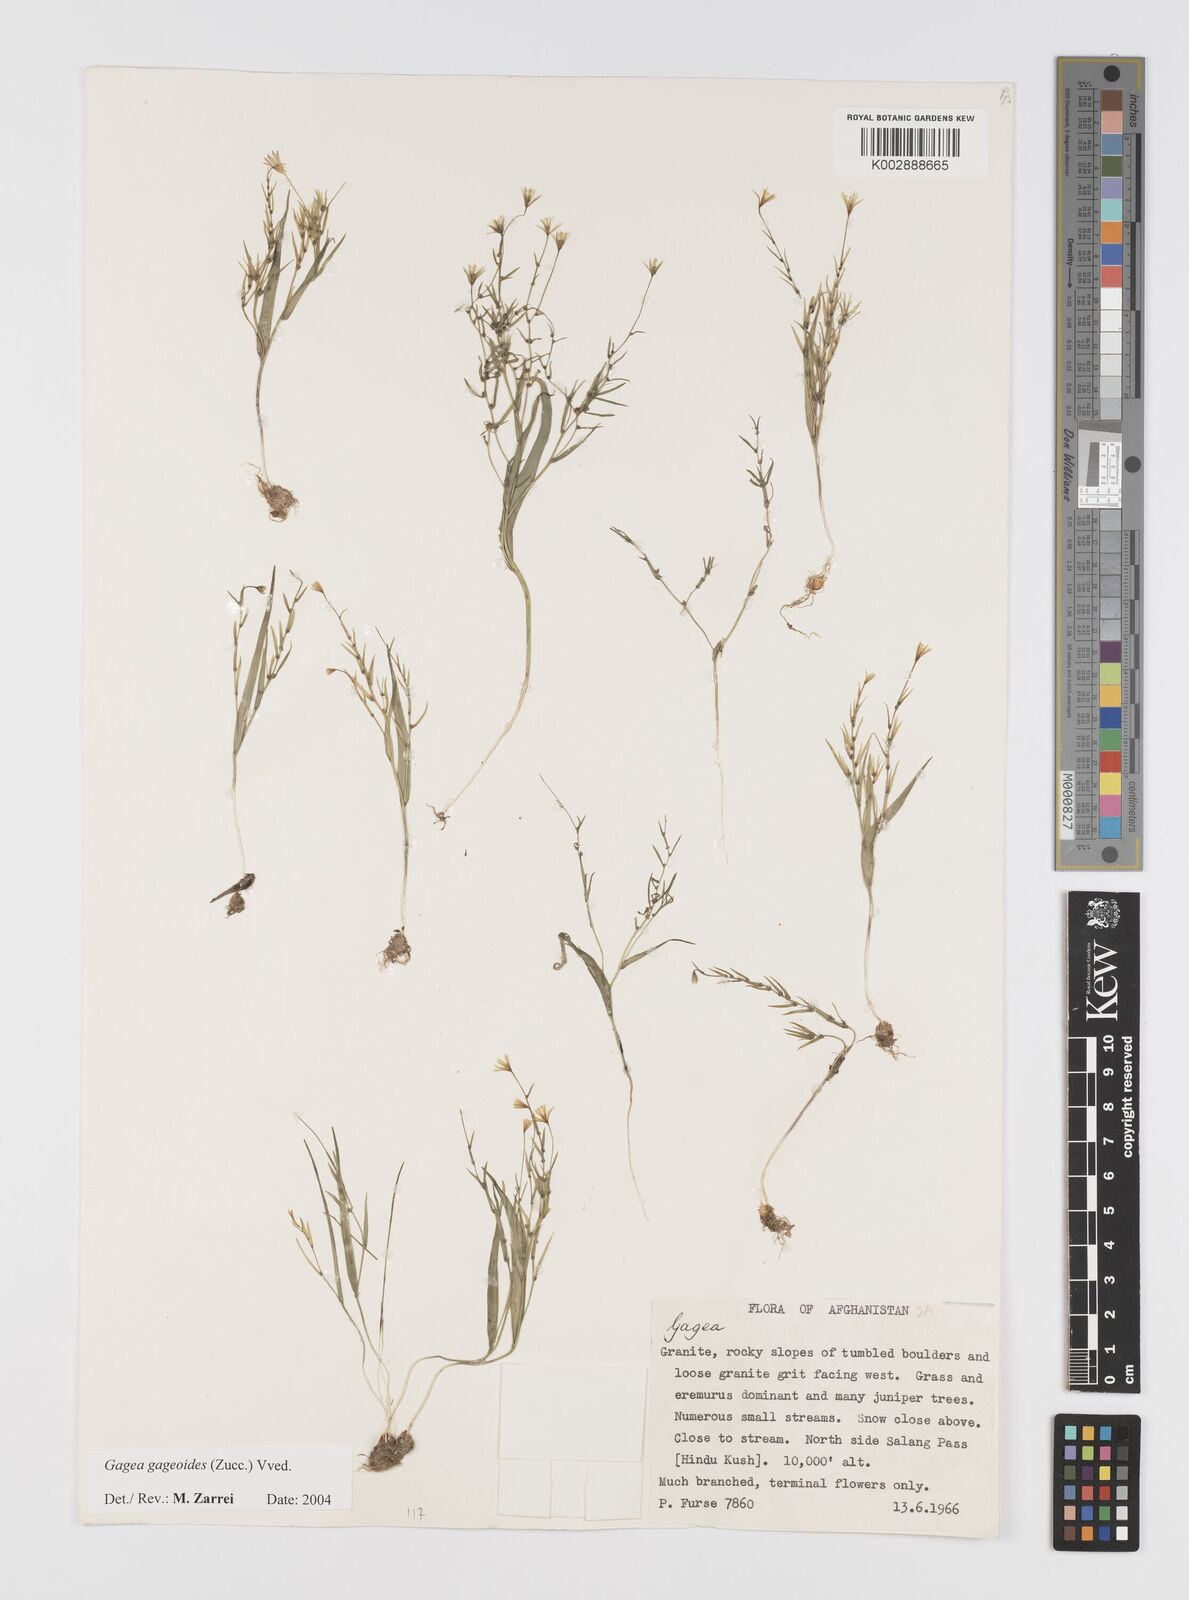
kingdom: Plantae
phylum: Tracheophyta
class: Liliopsida
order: Liliales
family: Liliaceae
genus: Gagea
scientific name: Gagea gageoides
